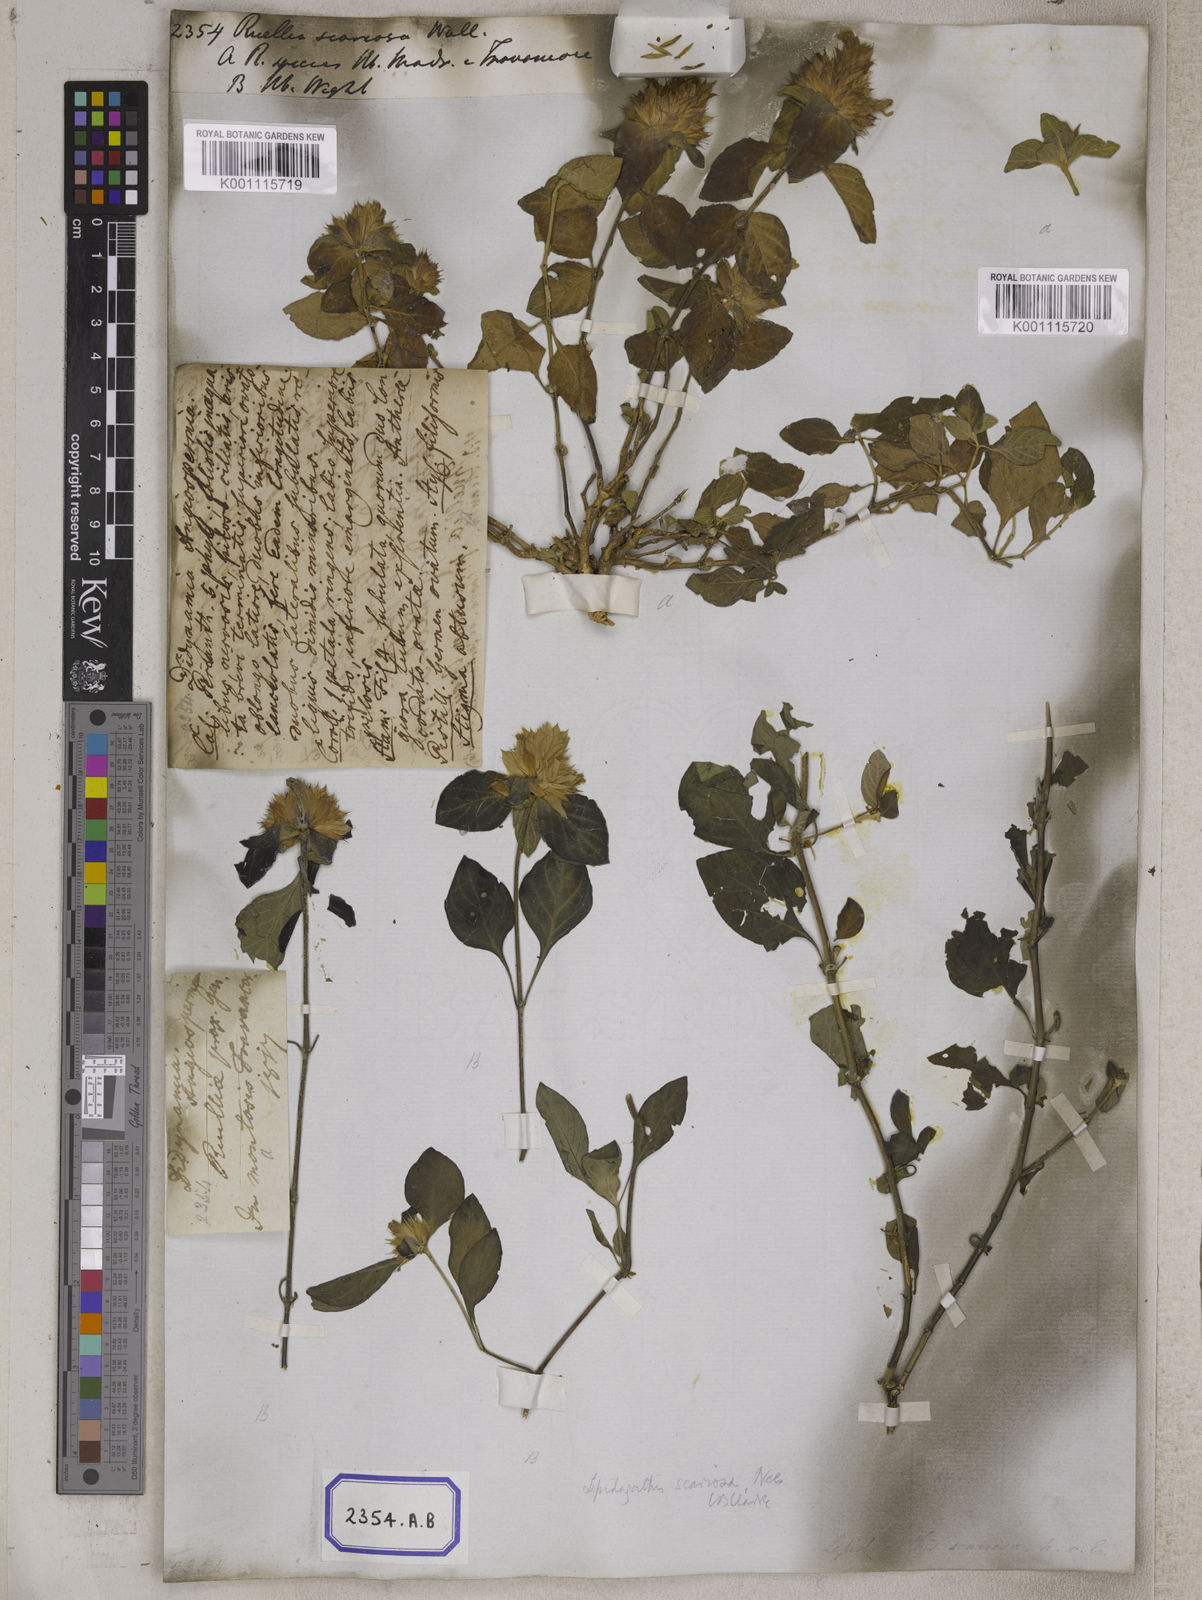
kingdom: Plantae
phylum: Tracheophyta
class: Magnoliopsida
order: Lamiales
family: Acanthaceae
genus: Ruellia
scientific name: Ruellia
